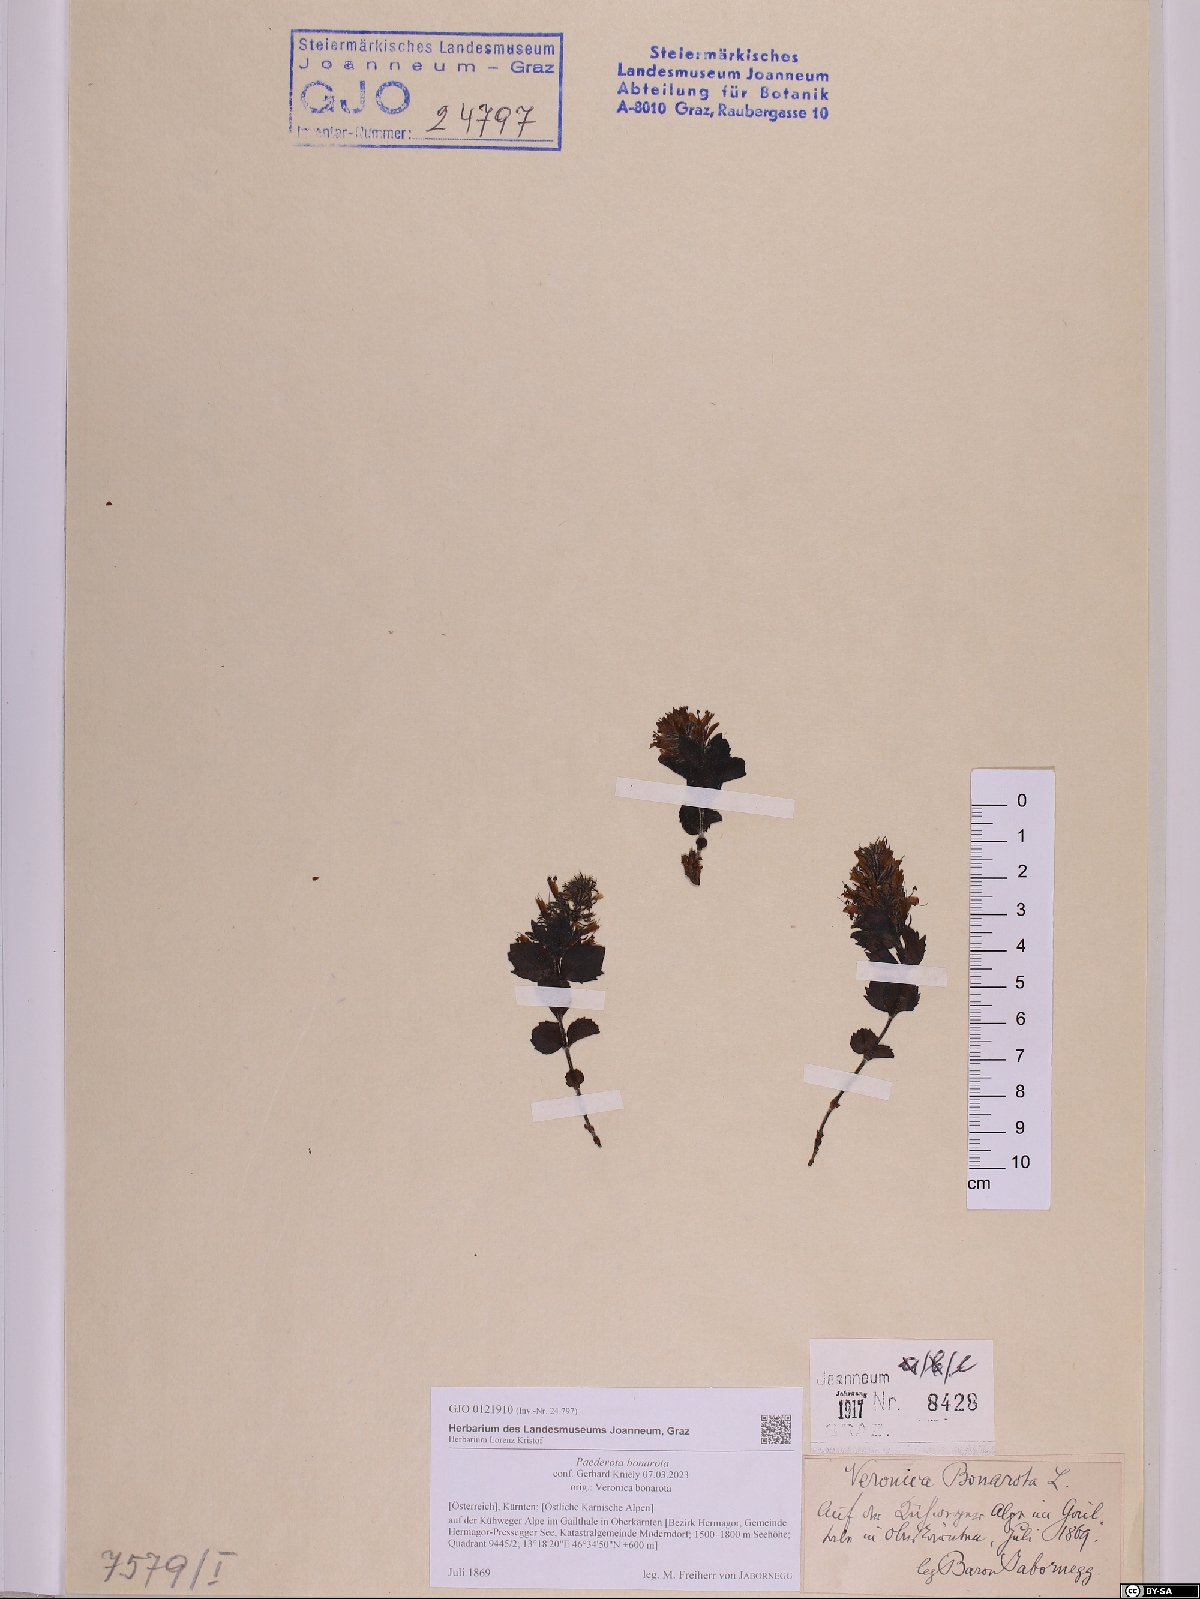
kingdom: Plantae
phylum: Tracheophyta
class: Magnoliopsida
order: Lamiales
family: Plantaginaceae
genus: Paederota
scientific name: Paederota bonarota
